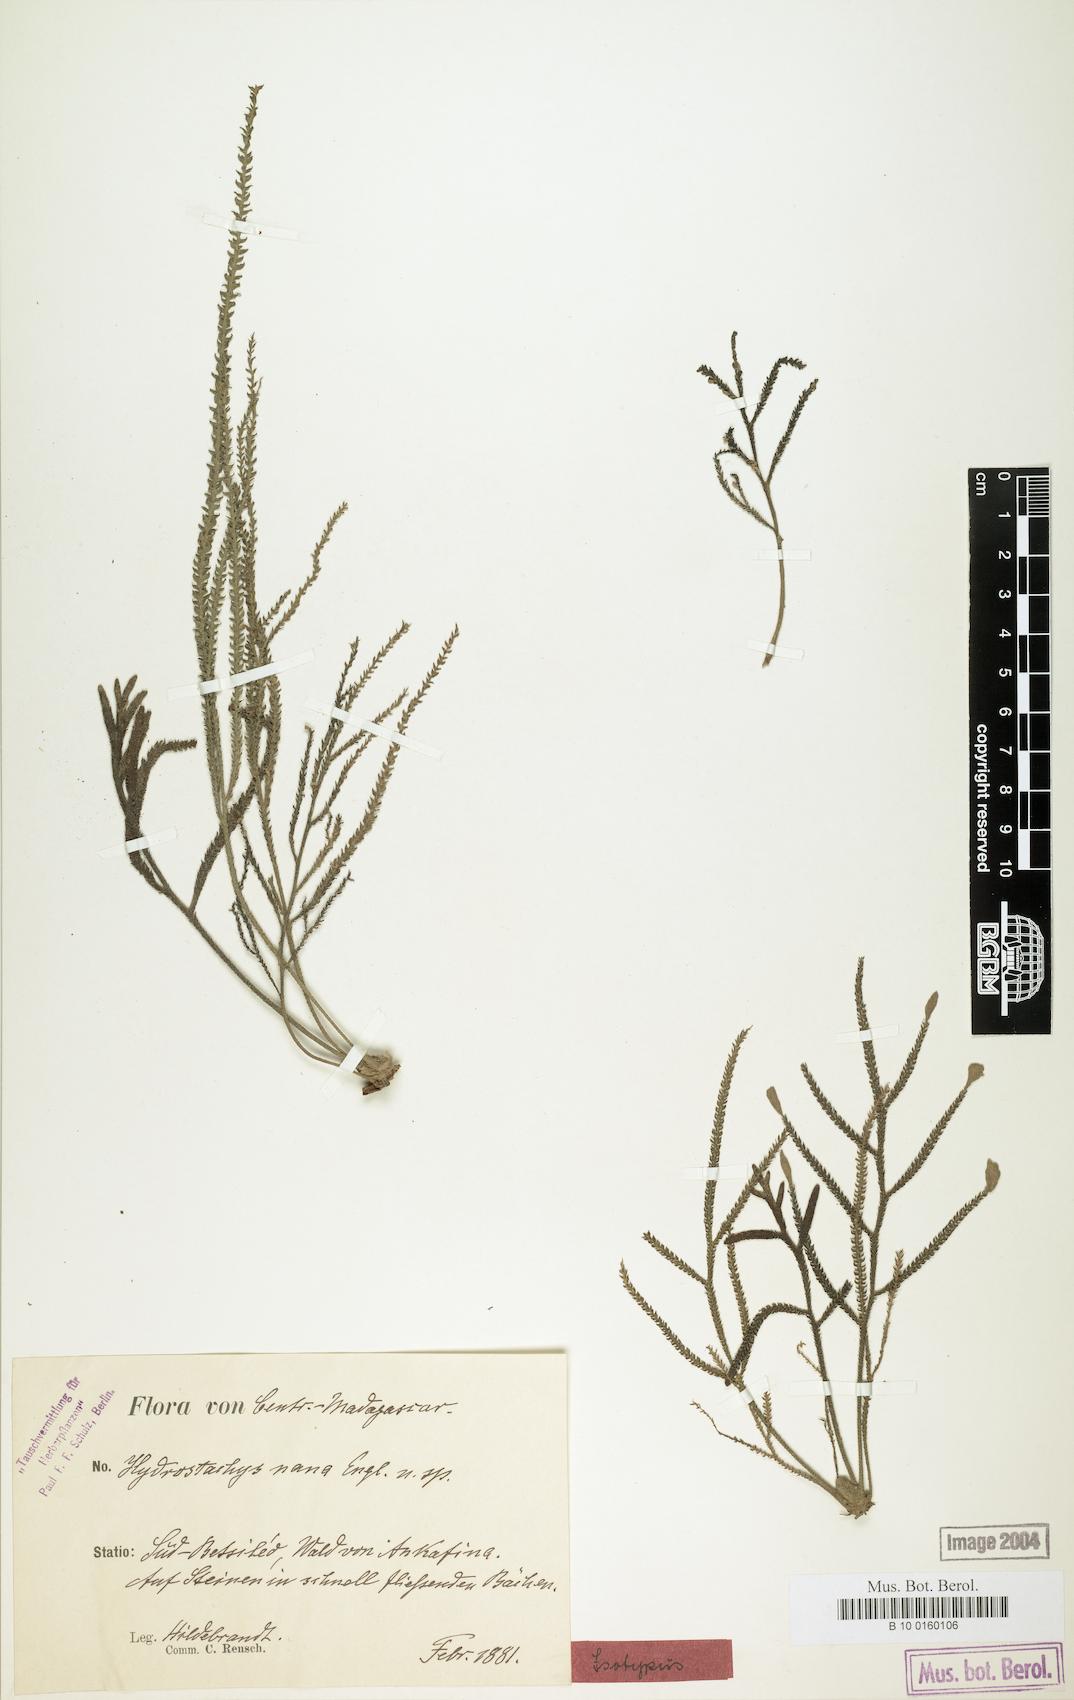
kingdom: Plantae
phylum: Tracheophyta
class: Magnoliopsida
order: Cornales
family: Hydrostachyaceae
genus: Hydrostachys
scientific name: Hydrostachys distichophylla
